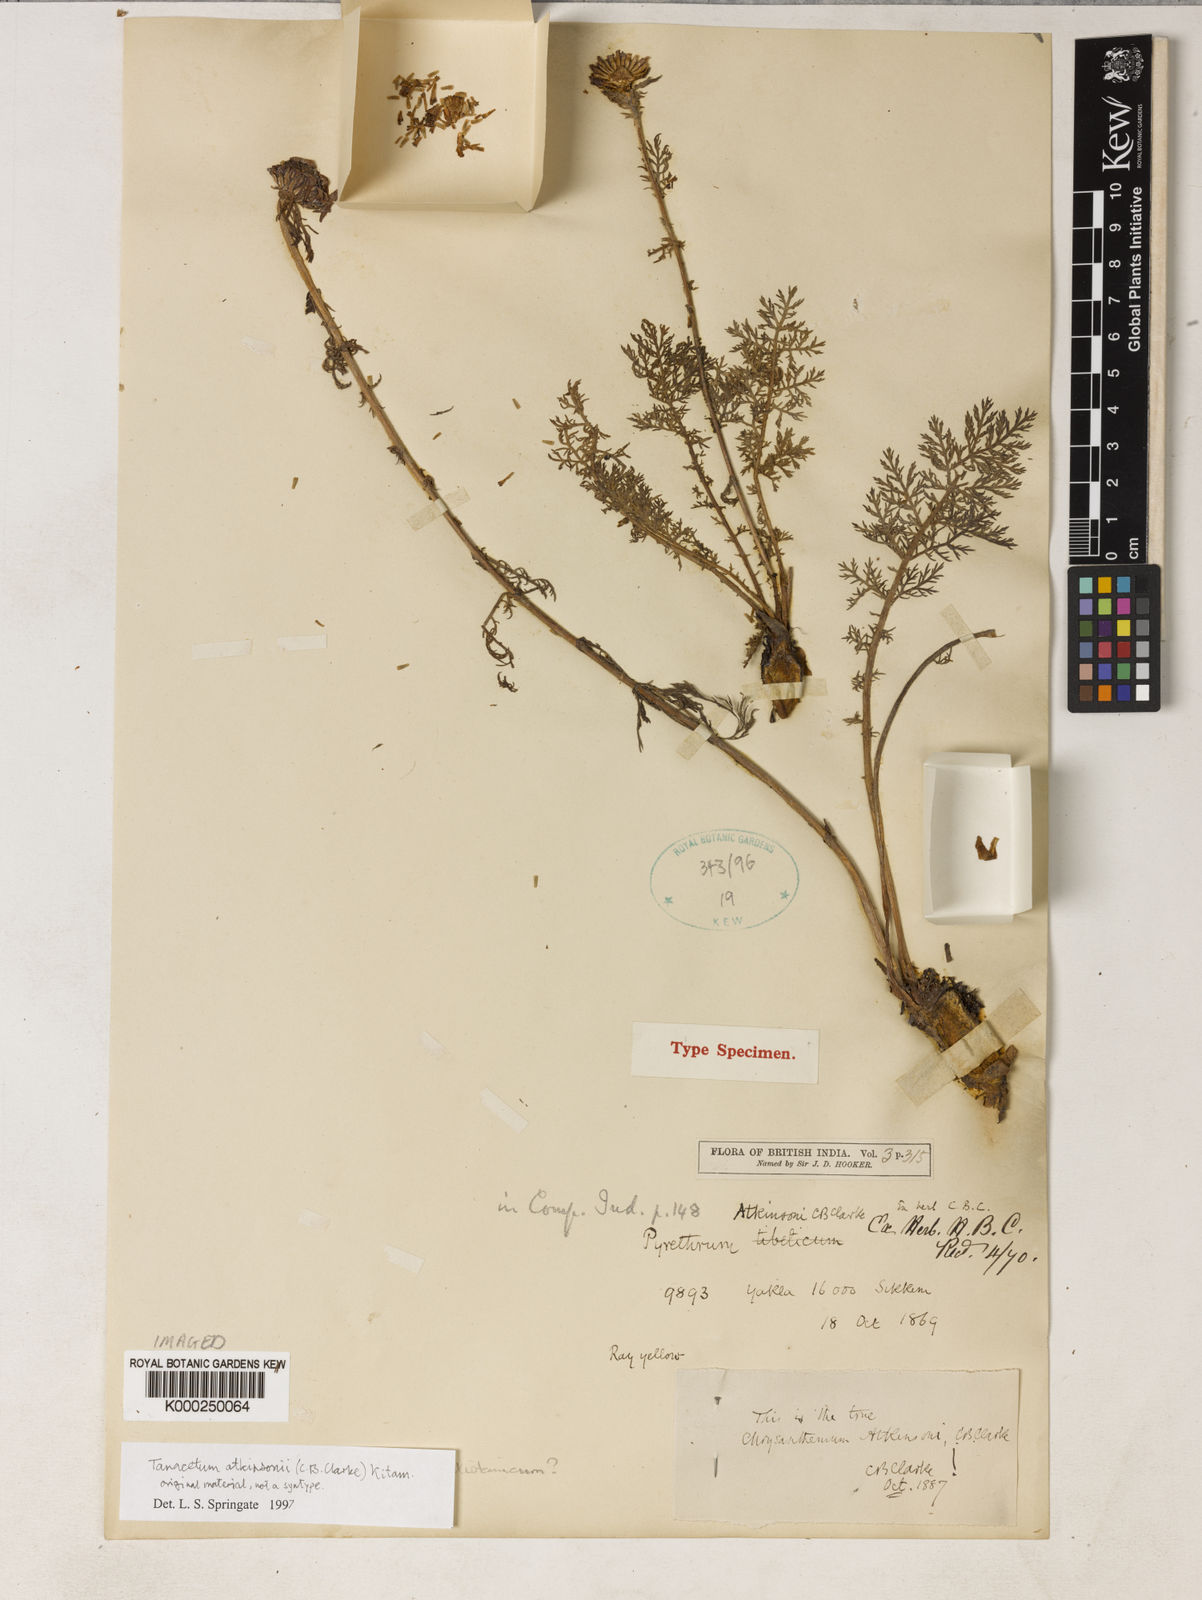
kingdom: Plantae
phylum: Tracheophyta
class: Magnoliopsida
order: Asterales
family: Asteraceae
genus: Tanacetum
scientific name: Tanacetum atkinsonii
